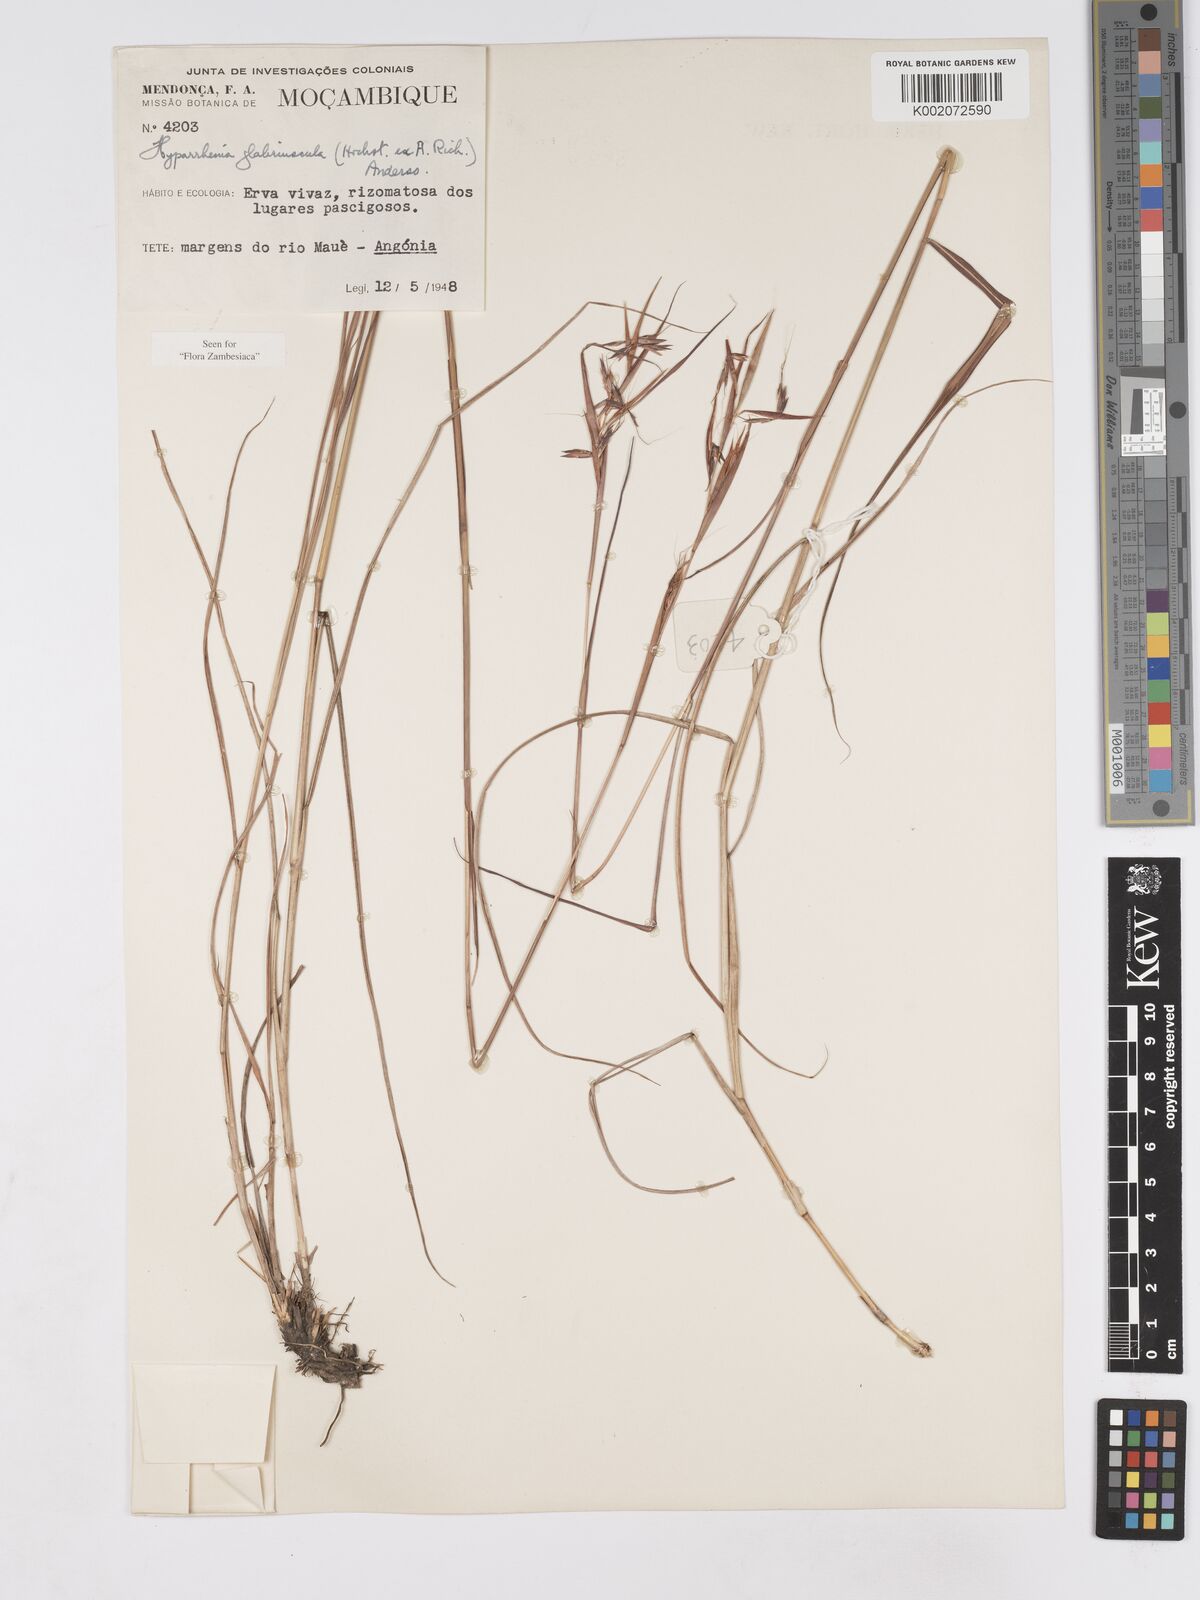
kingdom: Plantae
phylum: Tracheophyta
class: Liliopsida
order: Poales
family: Poaceae
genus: Hyparrhenia
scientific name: Hyparrhenia glabriuscula
